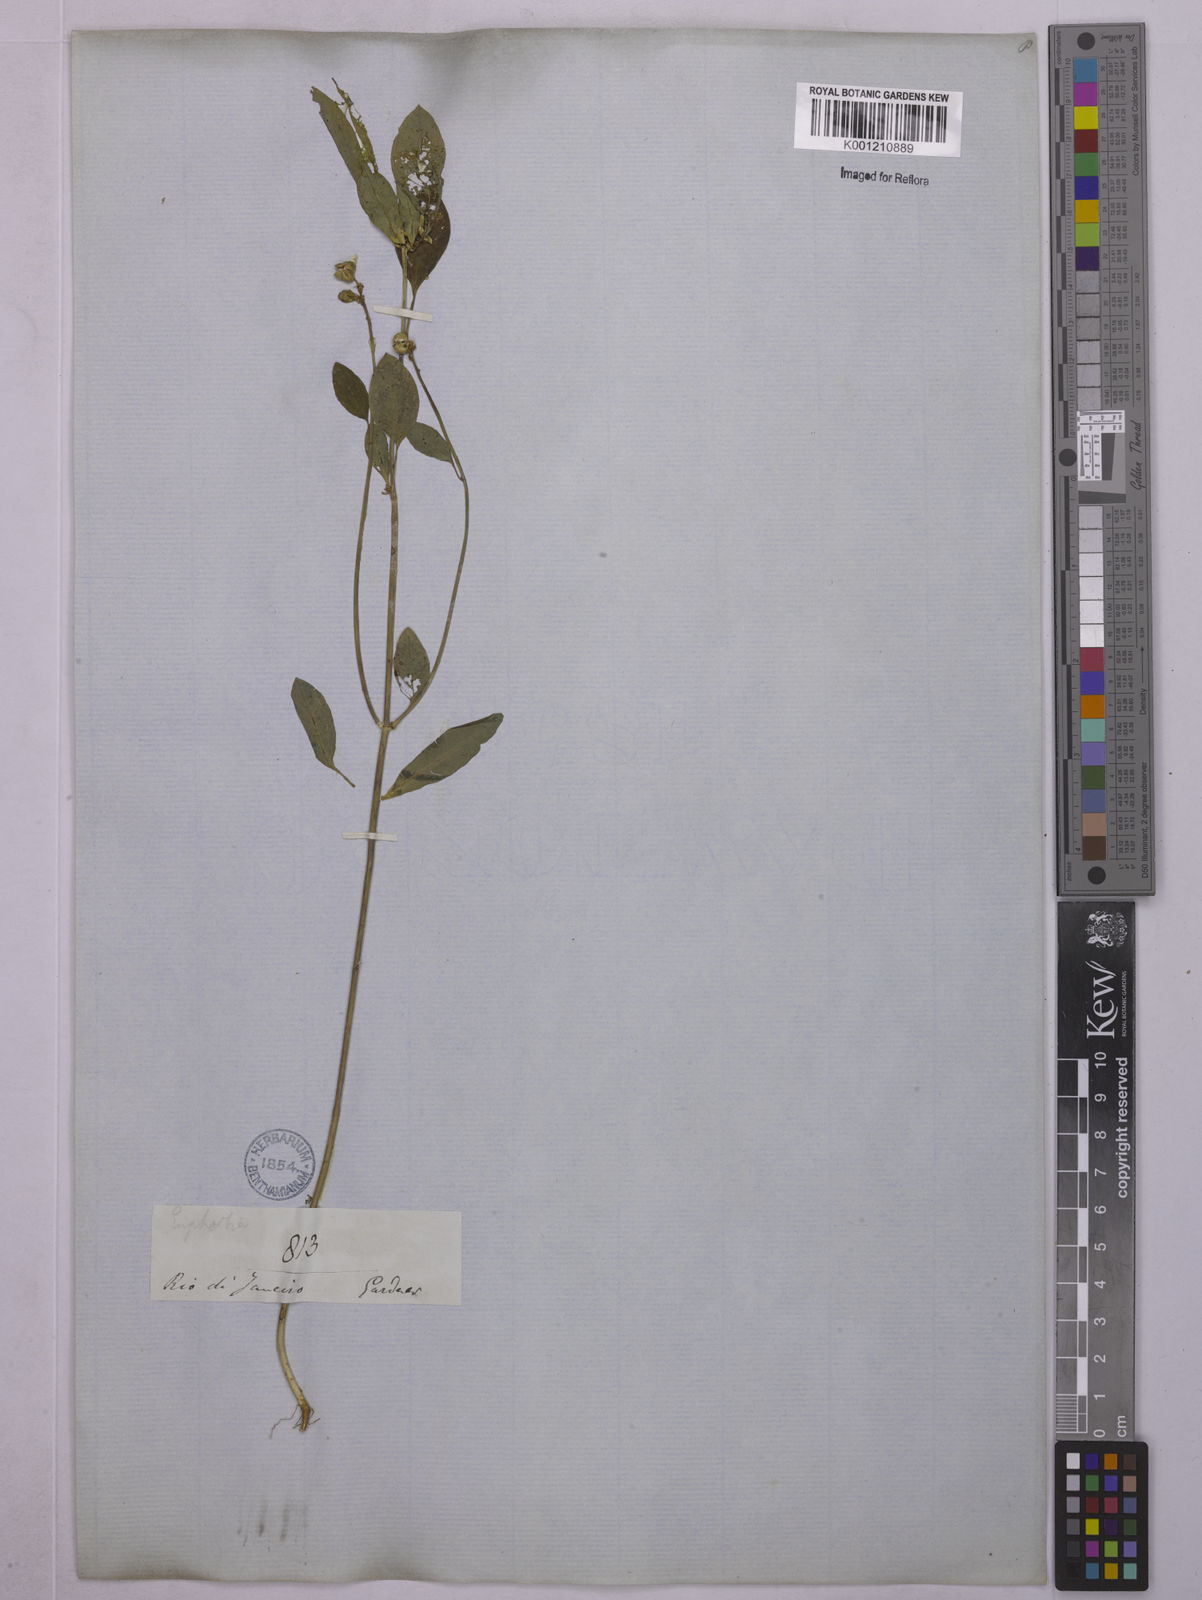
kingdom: Plantae
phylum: Tracheophyta
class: Magnoliopsida
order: Malpighiales
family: Euphorbiaceae
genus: Euphorbia
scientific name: Euphorbia heterophylla
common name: Mexican fireplant
